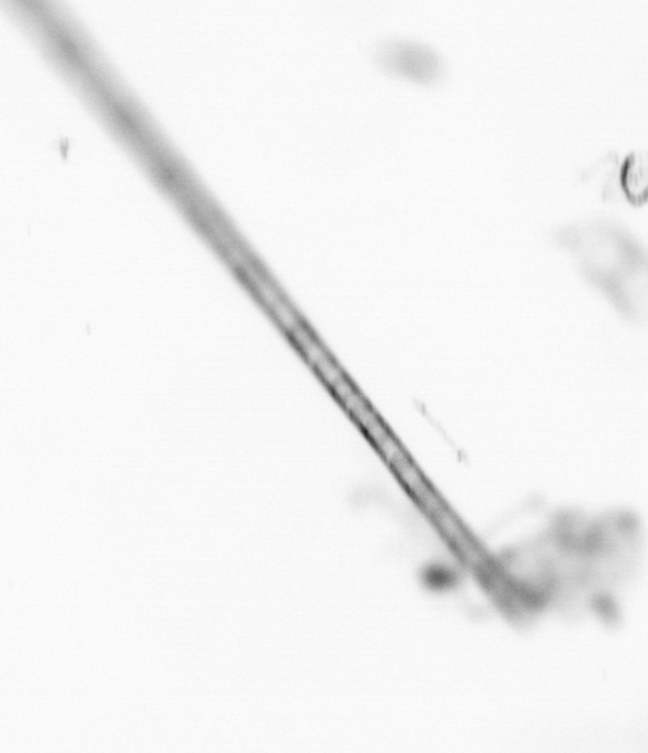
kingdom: Chromista
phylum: Ochrophyta
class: Bacillariophyceae
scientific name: Bacillariophyceae
